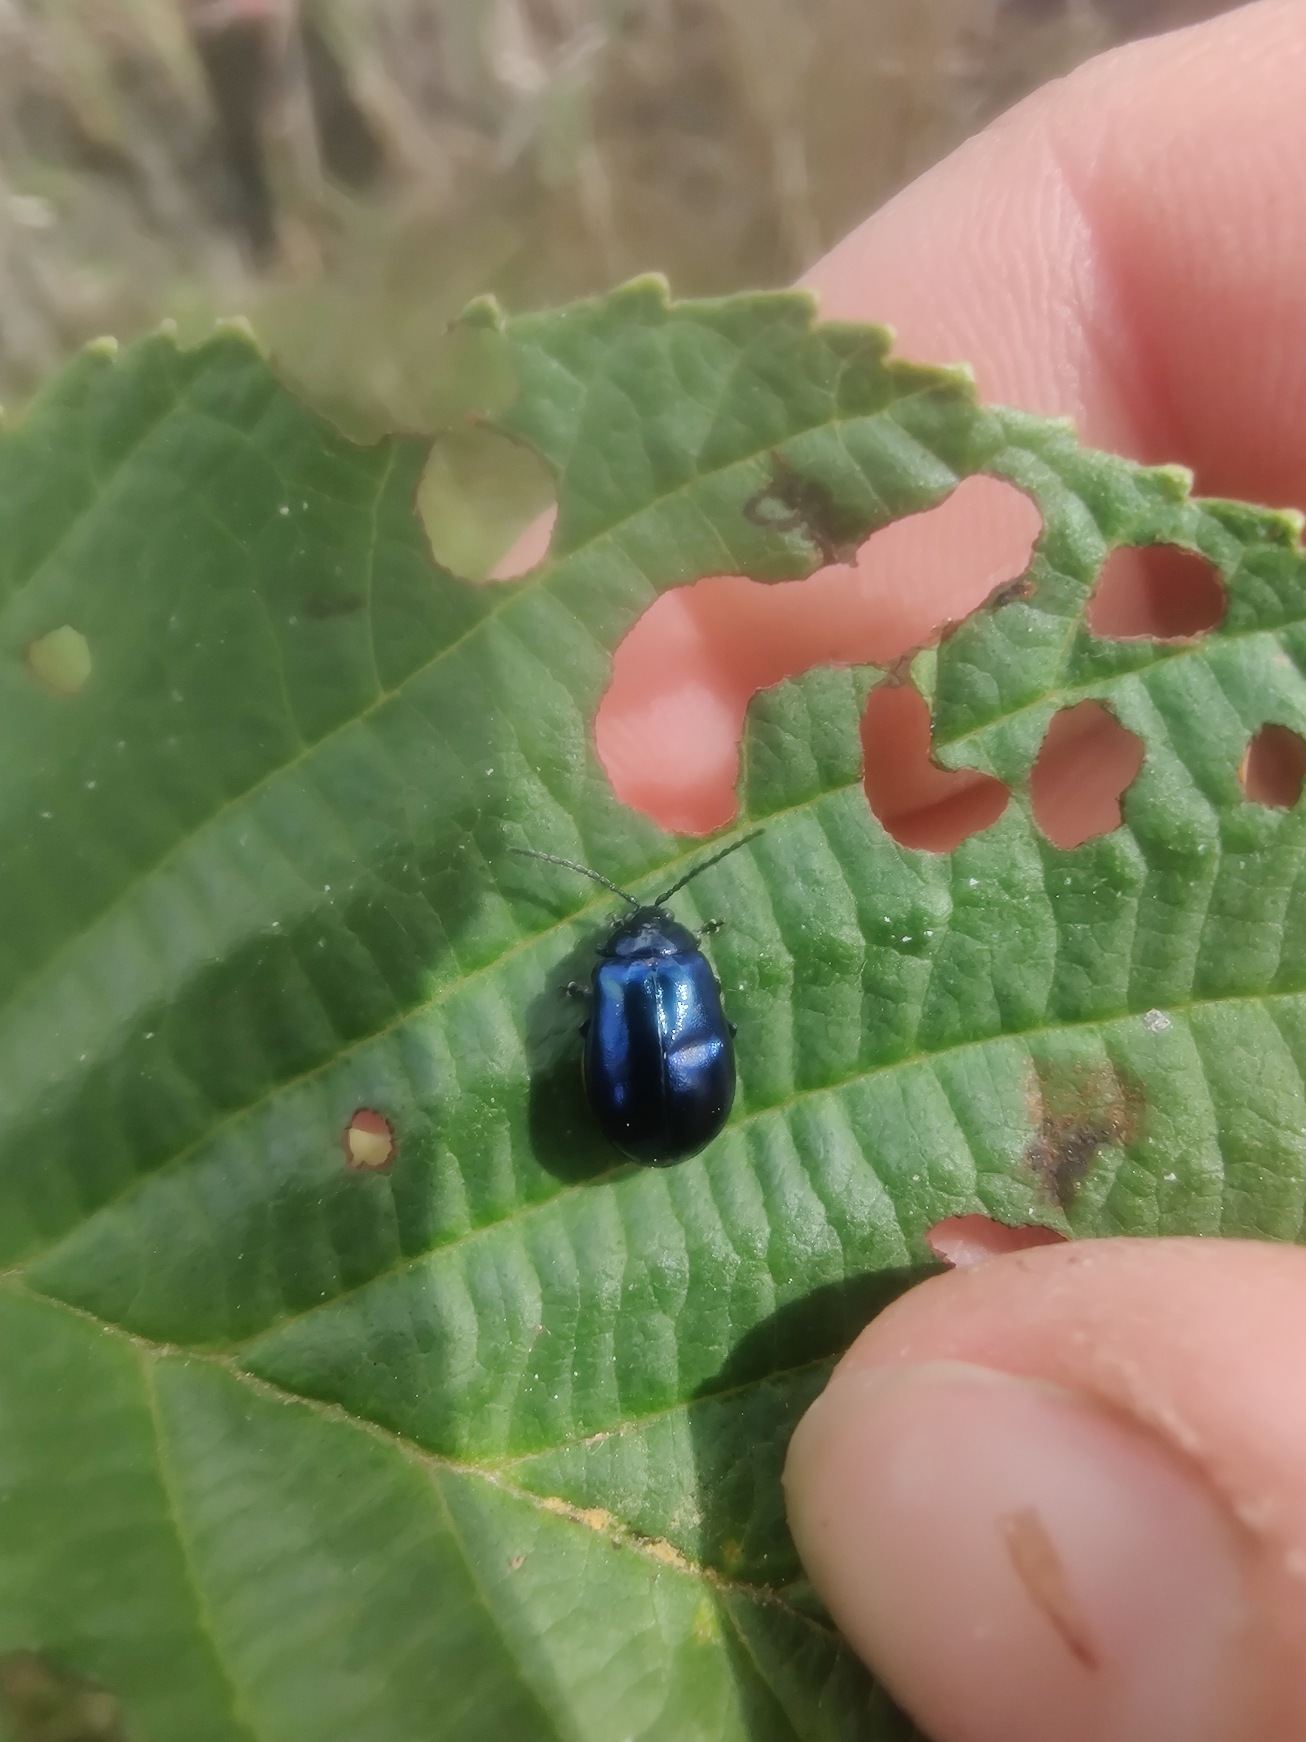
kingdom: Animalia
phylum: Arthropoda
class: Insecta
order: Coleoptera
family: Chrysomelidae
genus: Agelastica
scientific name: Agelastica alni
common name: Ellebladbille
